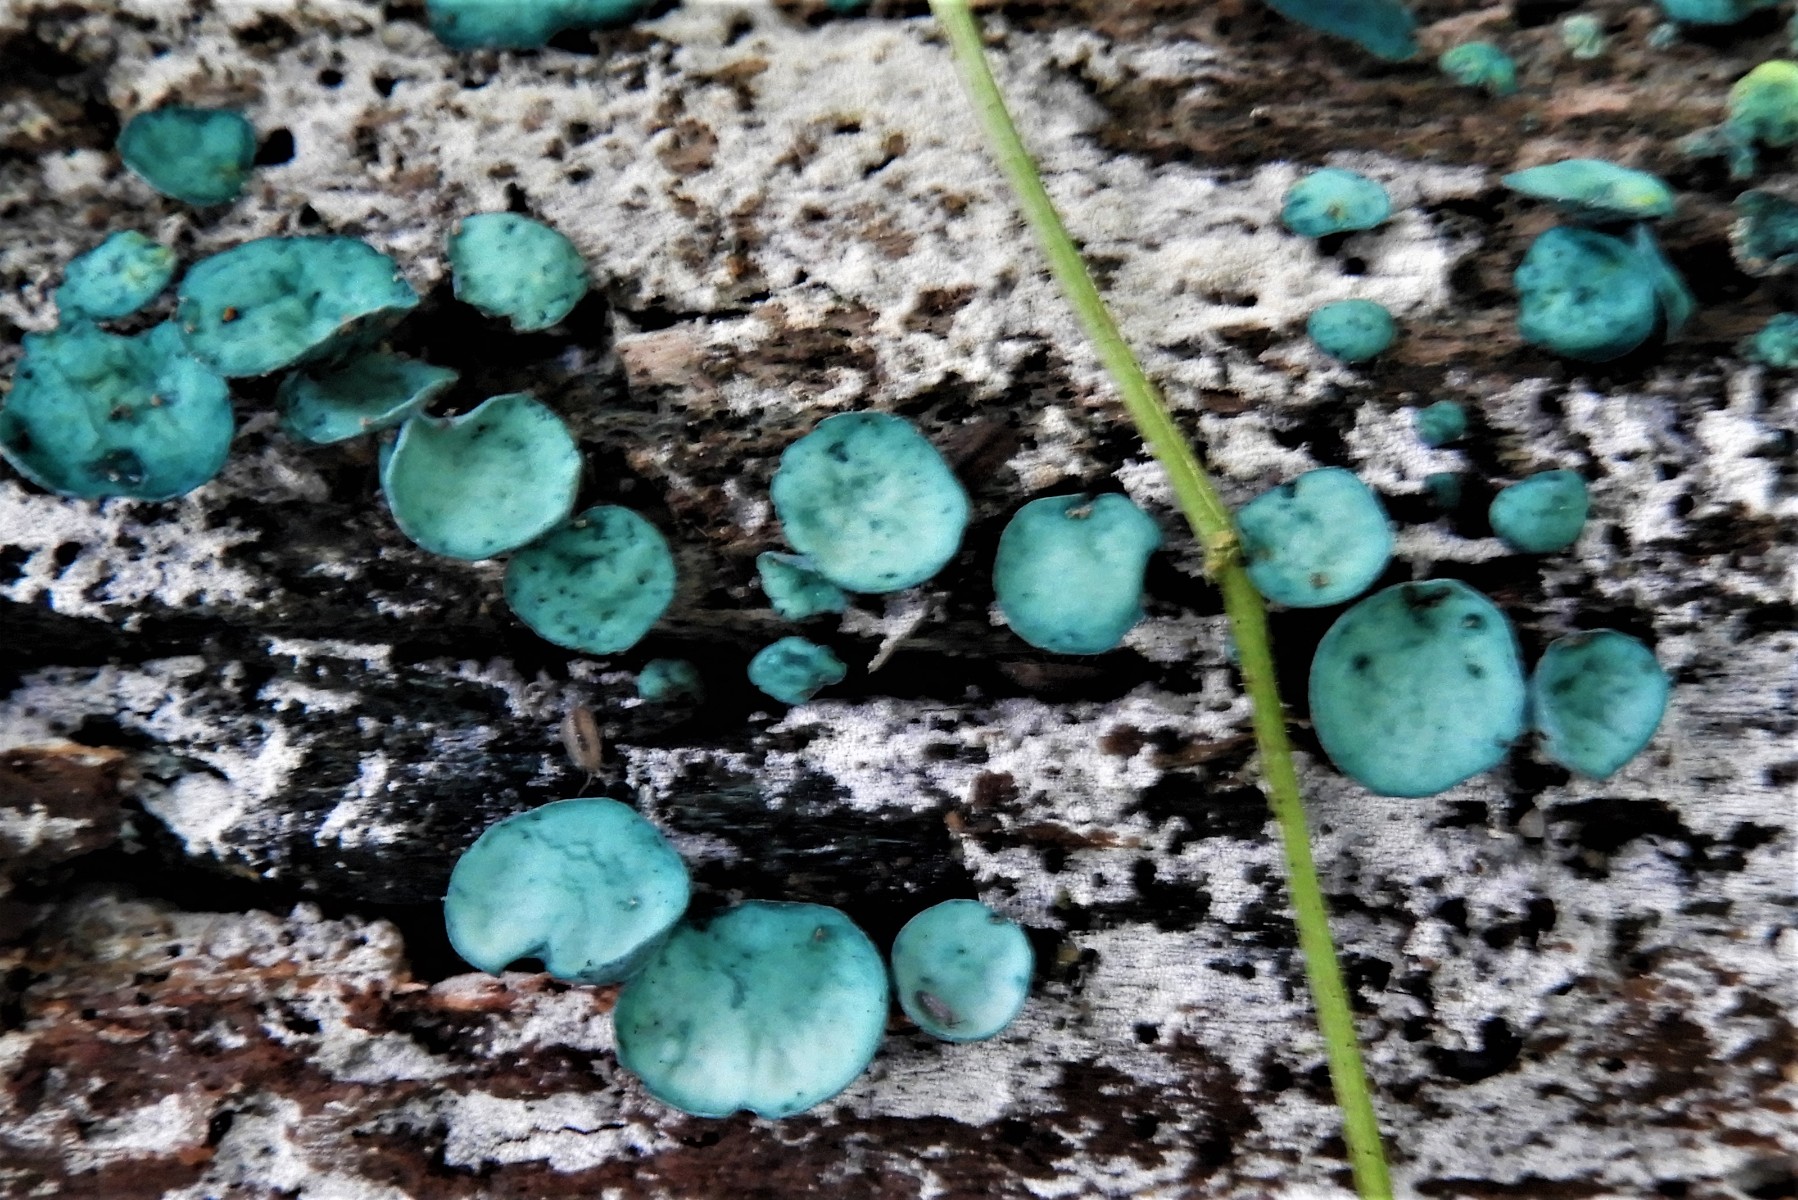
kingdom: Fungi
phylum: Ascomycota
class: Leotiomycetes
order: Helotiales
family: Chlorociboriaceae
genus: Chlorociboria
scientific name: Chlorociboria aeruginascens
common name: almindelig grønskive
